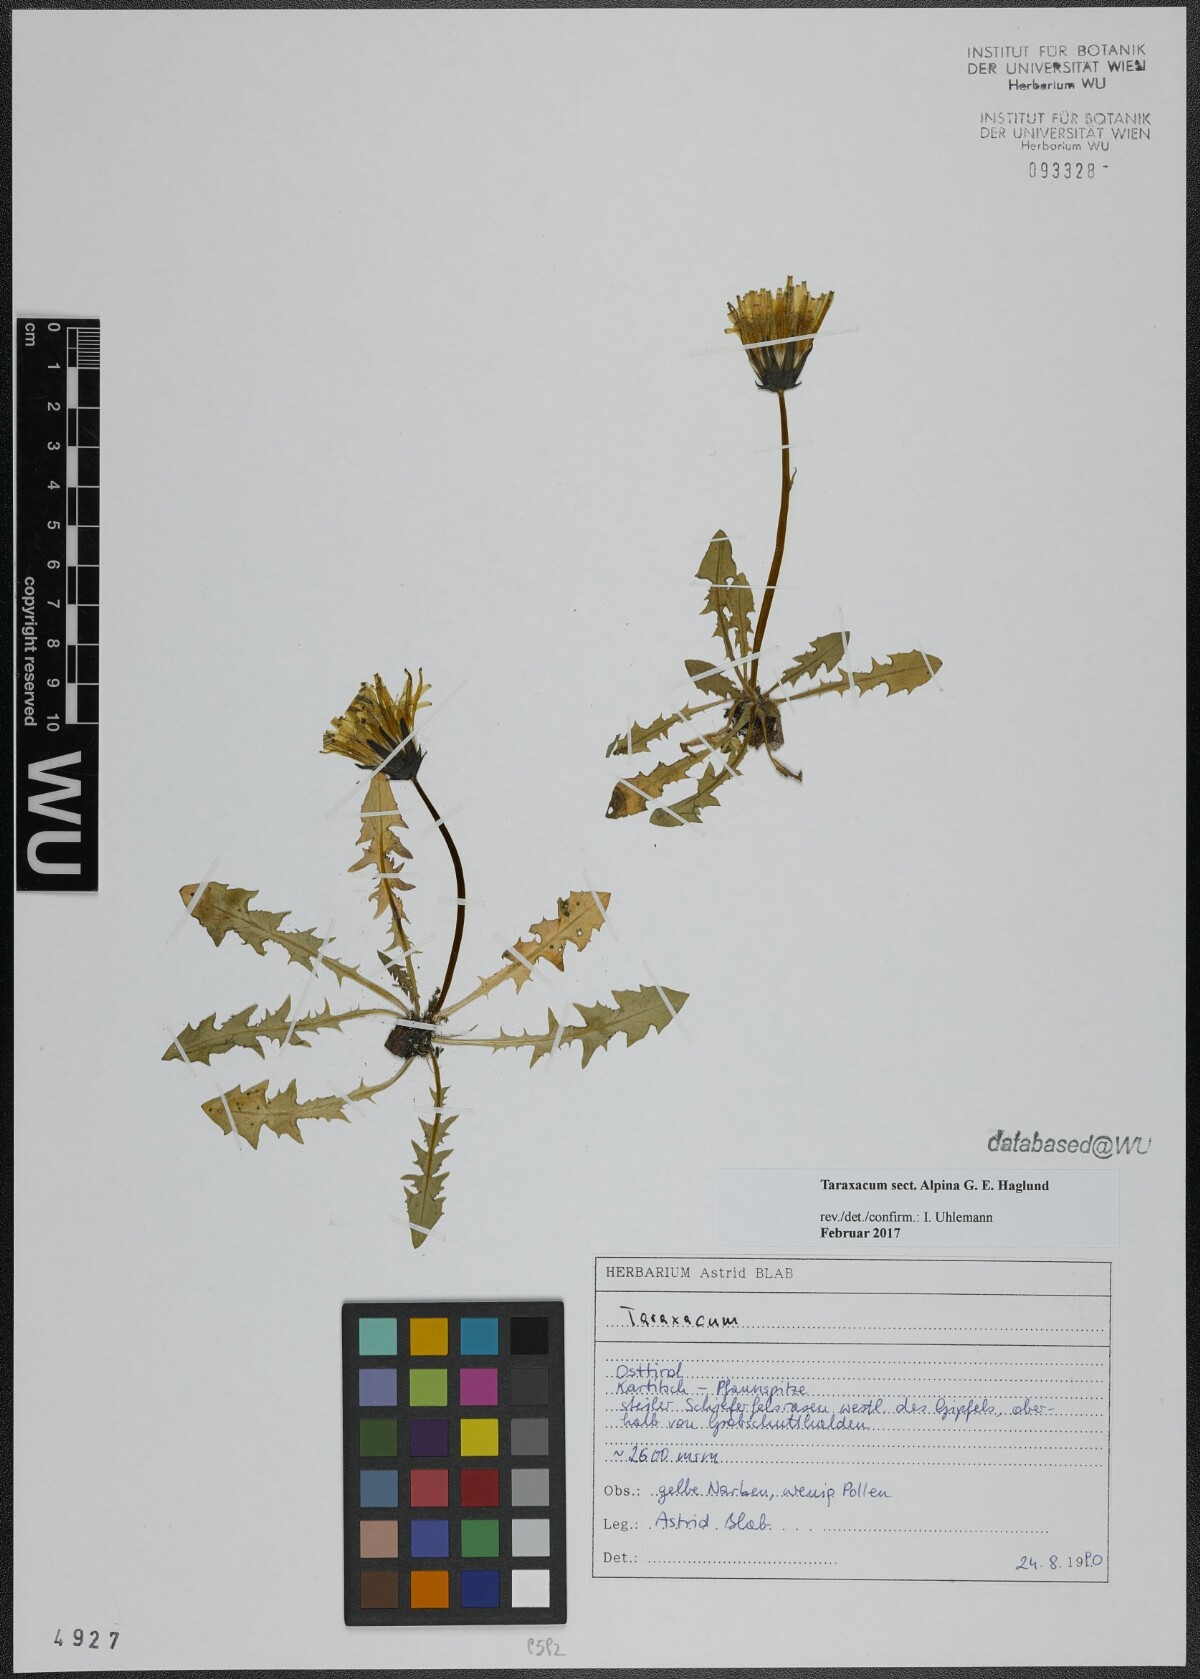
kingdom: Plantae
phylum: Tracheophyta
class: Magnoliopsida
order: Asterales
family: Asteraceae
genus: Taraxacum
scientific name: Taraxacum
